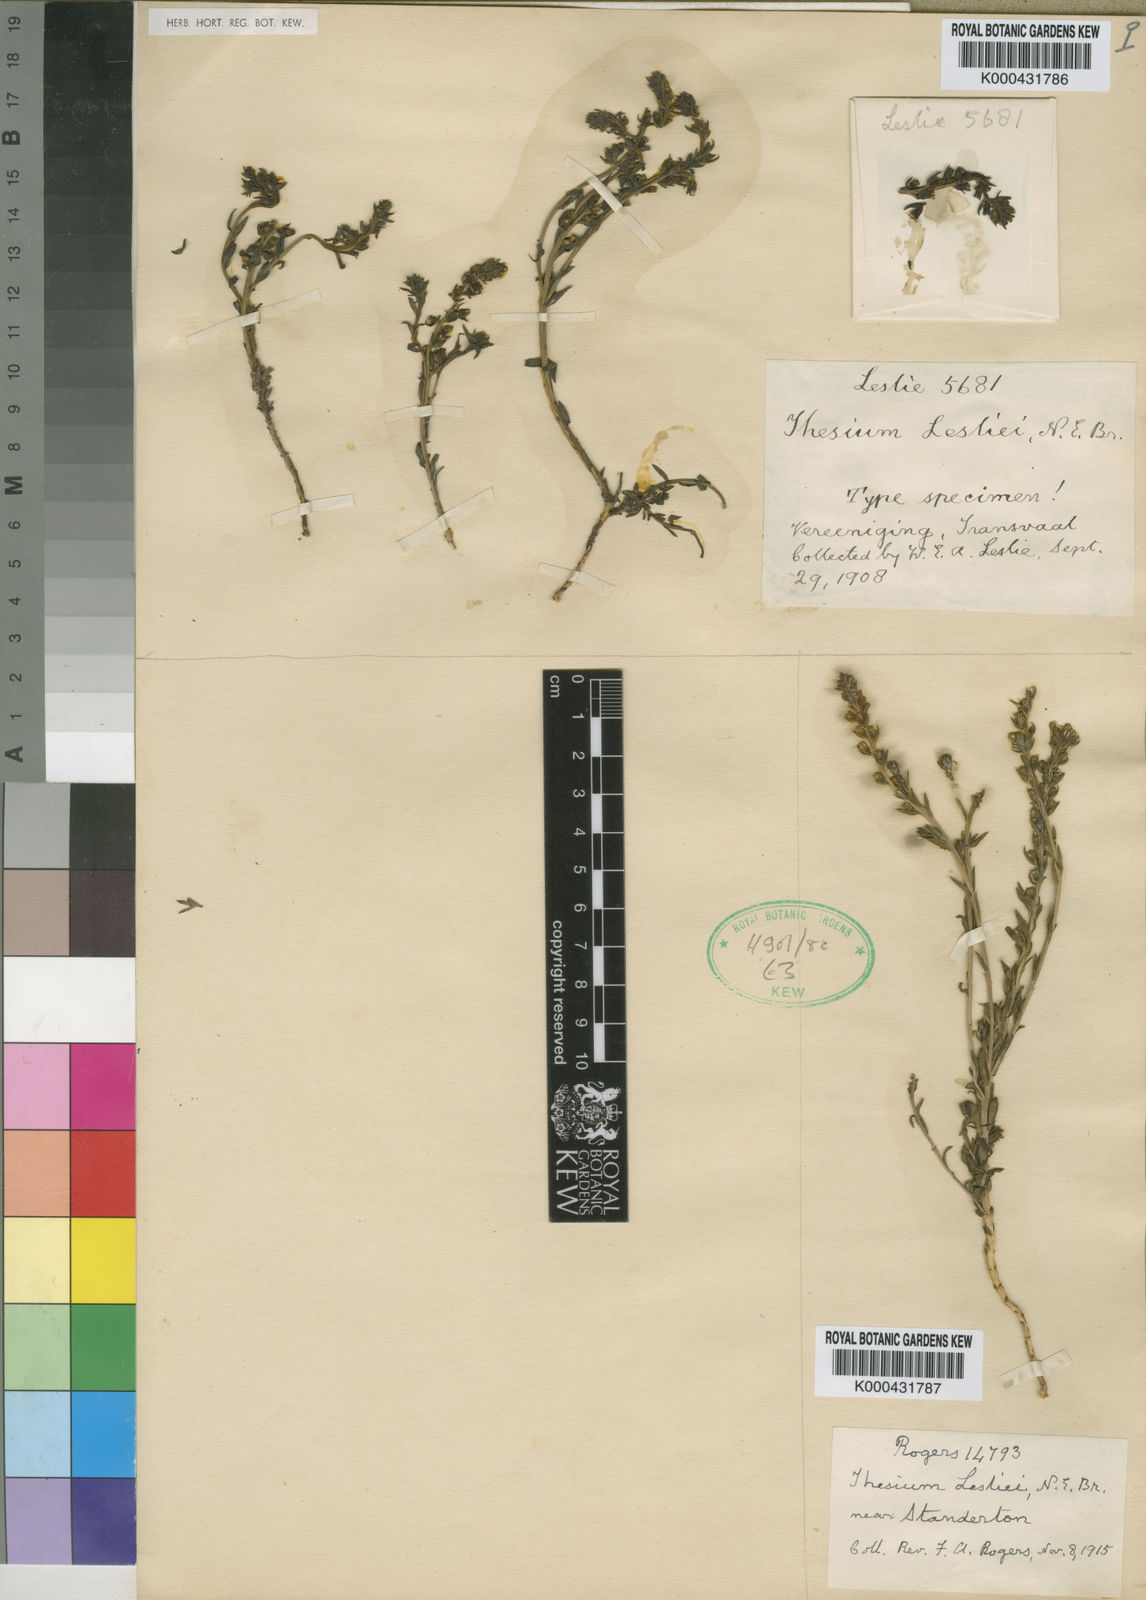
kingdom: Plantae
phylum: Tracheophyta
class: Magnoliopsida
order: Santalales
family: Thesiaceae
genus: Thesium
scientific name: Thesium lesliei
